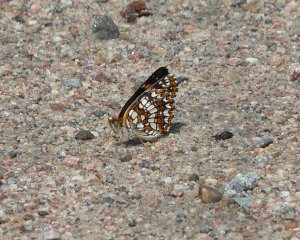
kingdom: Animalia
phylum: Arthropoda
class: Insecta
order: Lepidoptera
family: Nymphalidae
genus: Chlosyne
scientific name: Chlosyne harrisii
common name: Harris's Checkerspot
